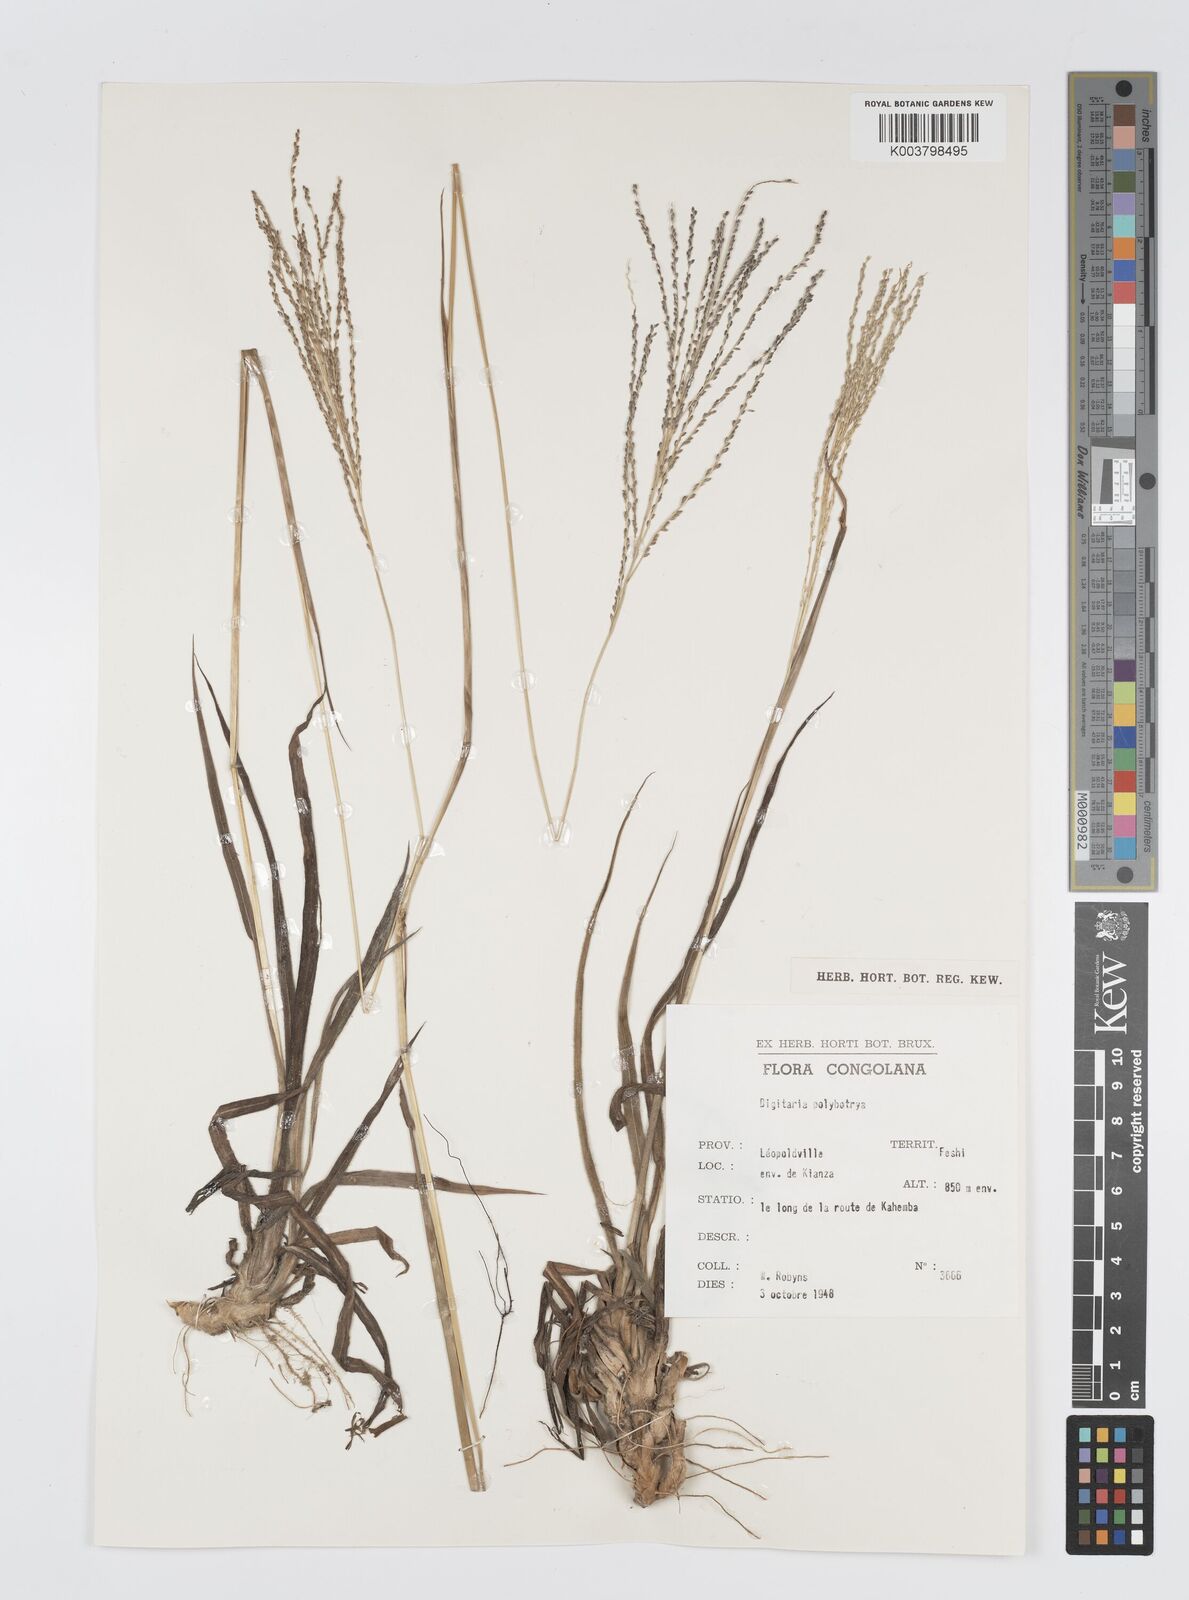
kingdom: Plantae
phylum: Tracheophyta
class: Liliopsida
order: Poales
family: Poaceae
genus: Digitaria
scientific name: Digitaria gazensis
